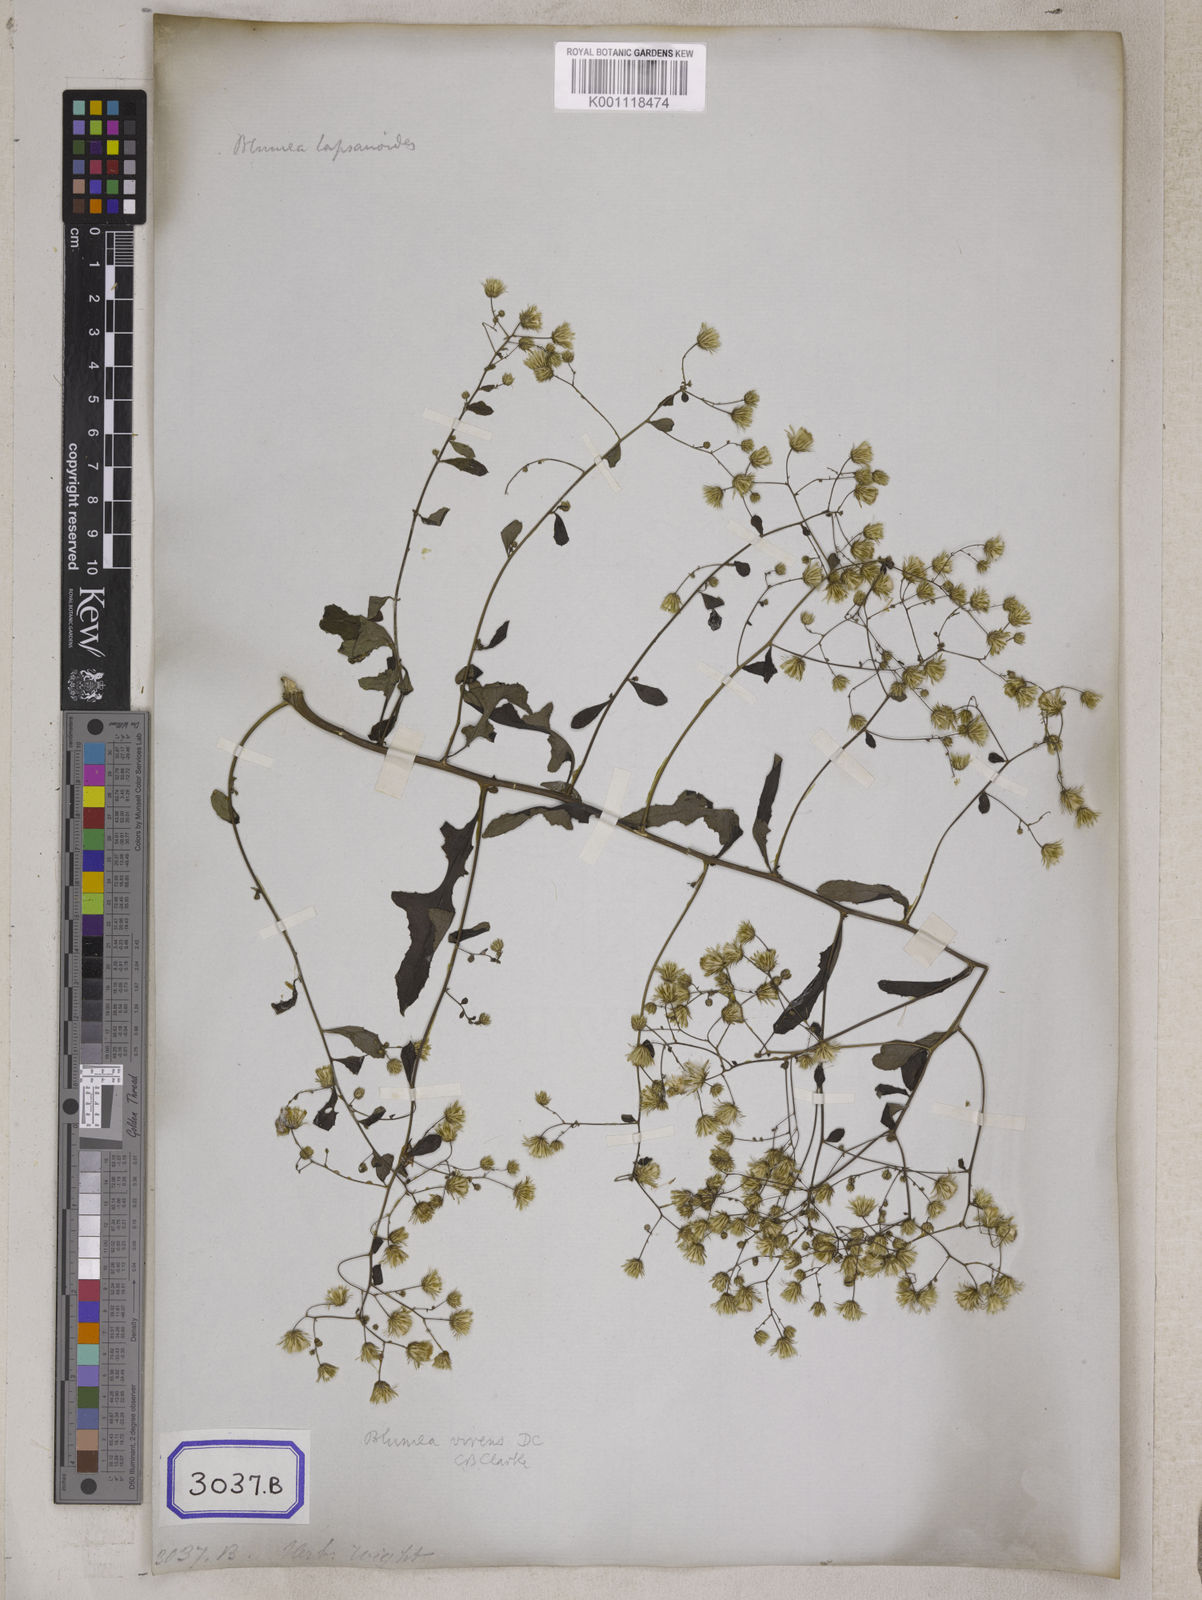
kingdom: Plantae
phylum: Tracheophyta
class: Magnoliopsida
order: Asterales
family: Asteraceae
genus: Blumea
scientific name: Blumea virens
